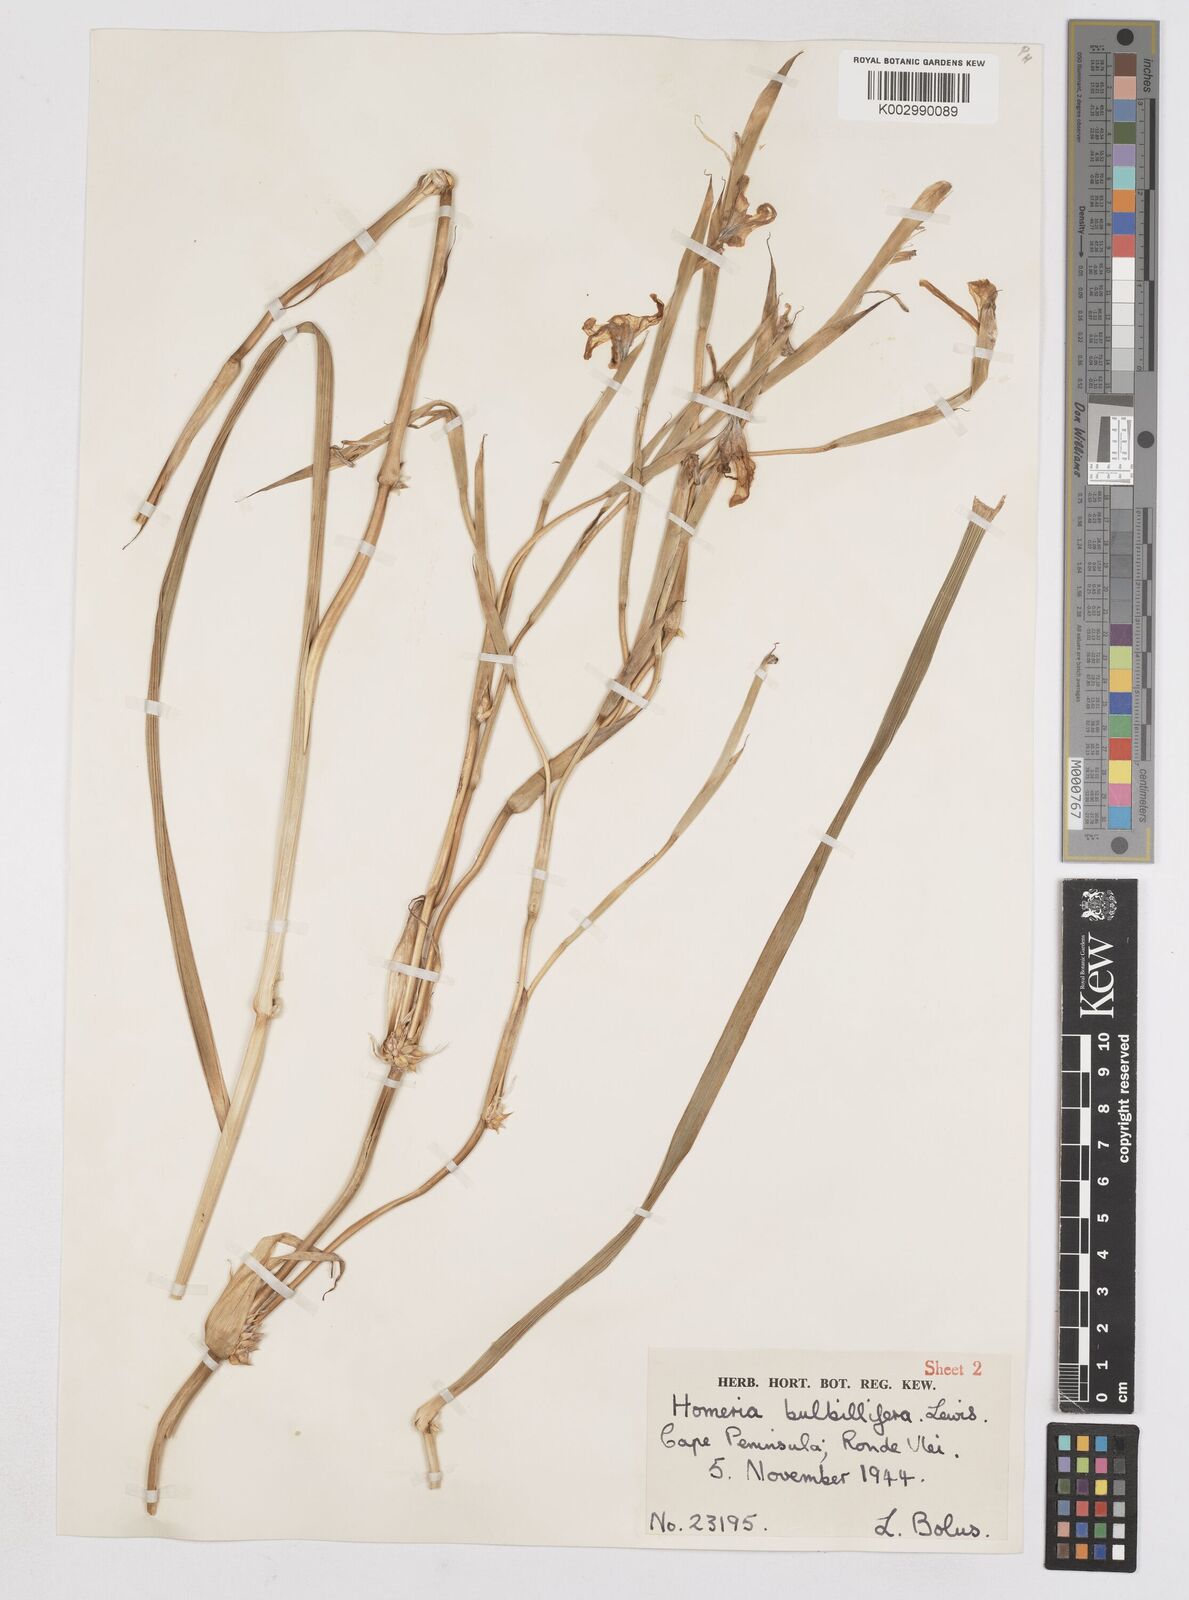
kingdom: Plantae
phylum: Tracheophyta
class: Liliopsida
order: Asparagales
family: Iridaceae
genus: Moraea
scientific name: Moraea bulbillifera
